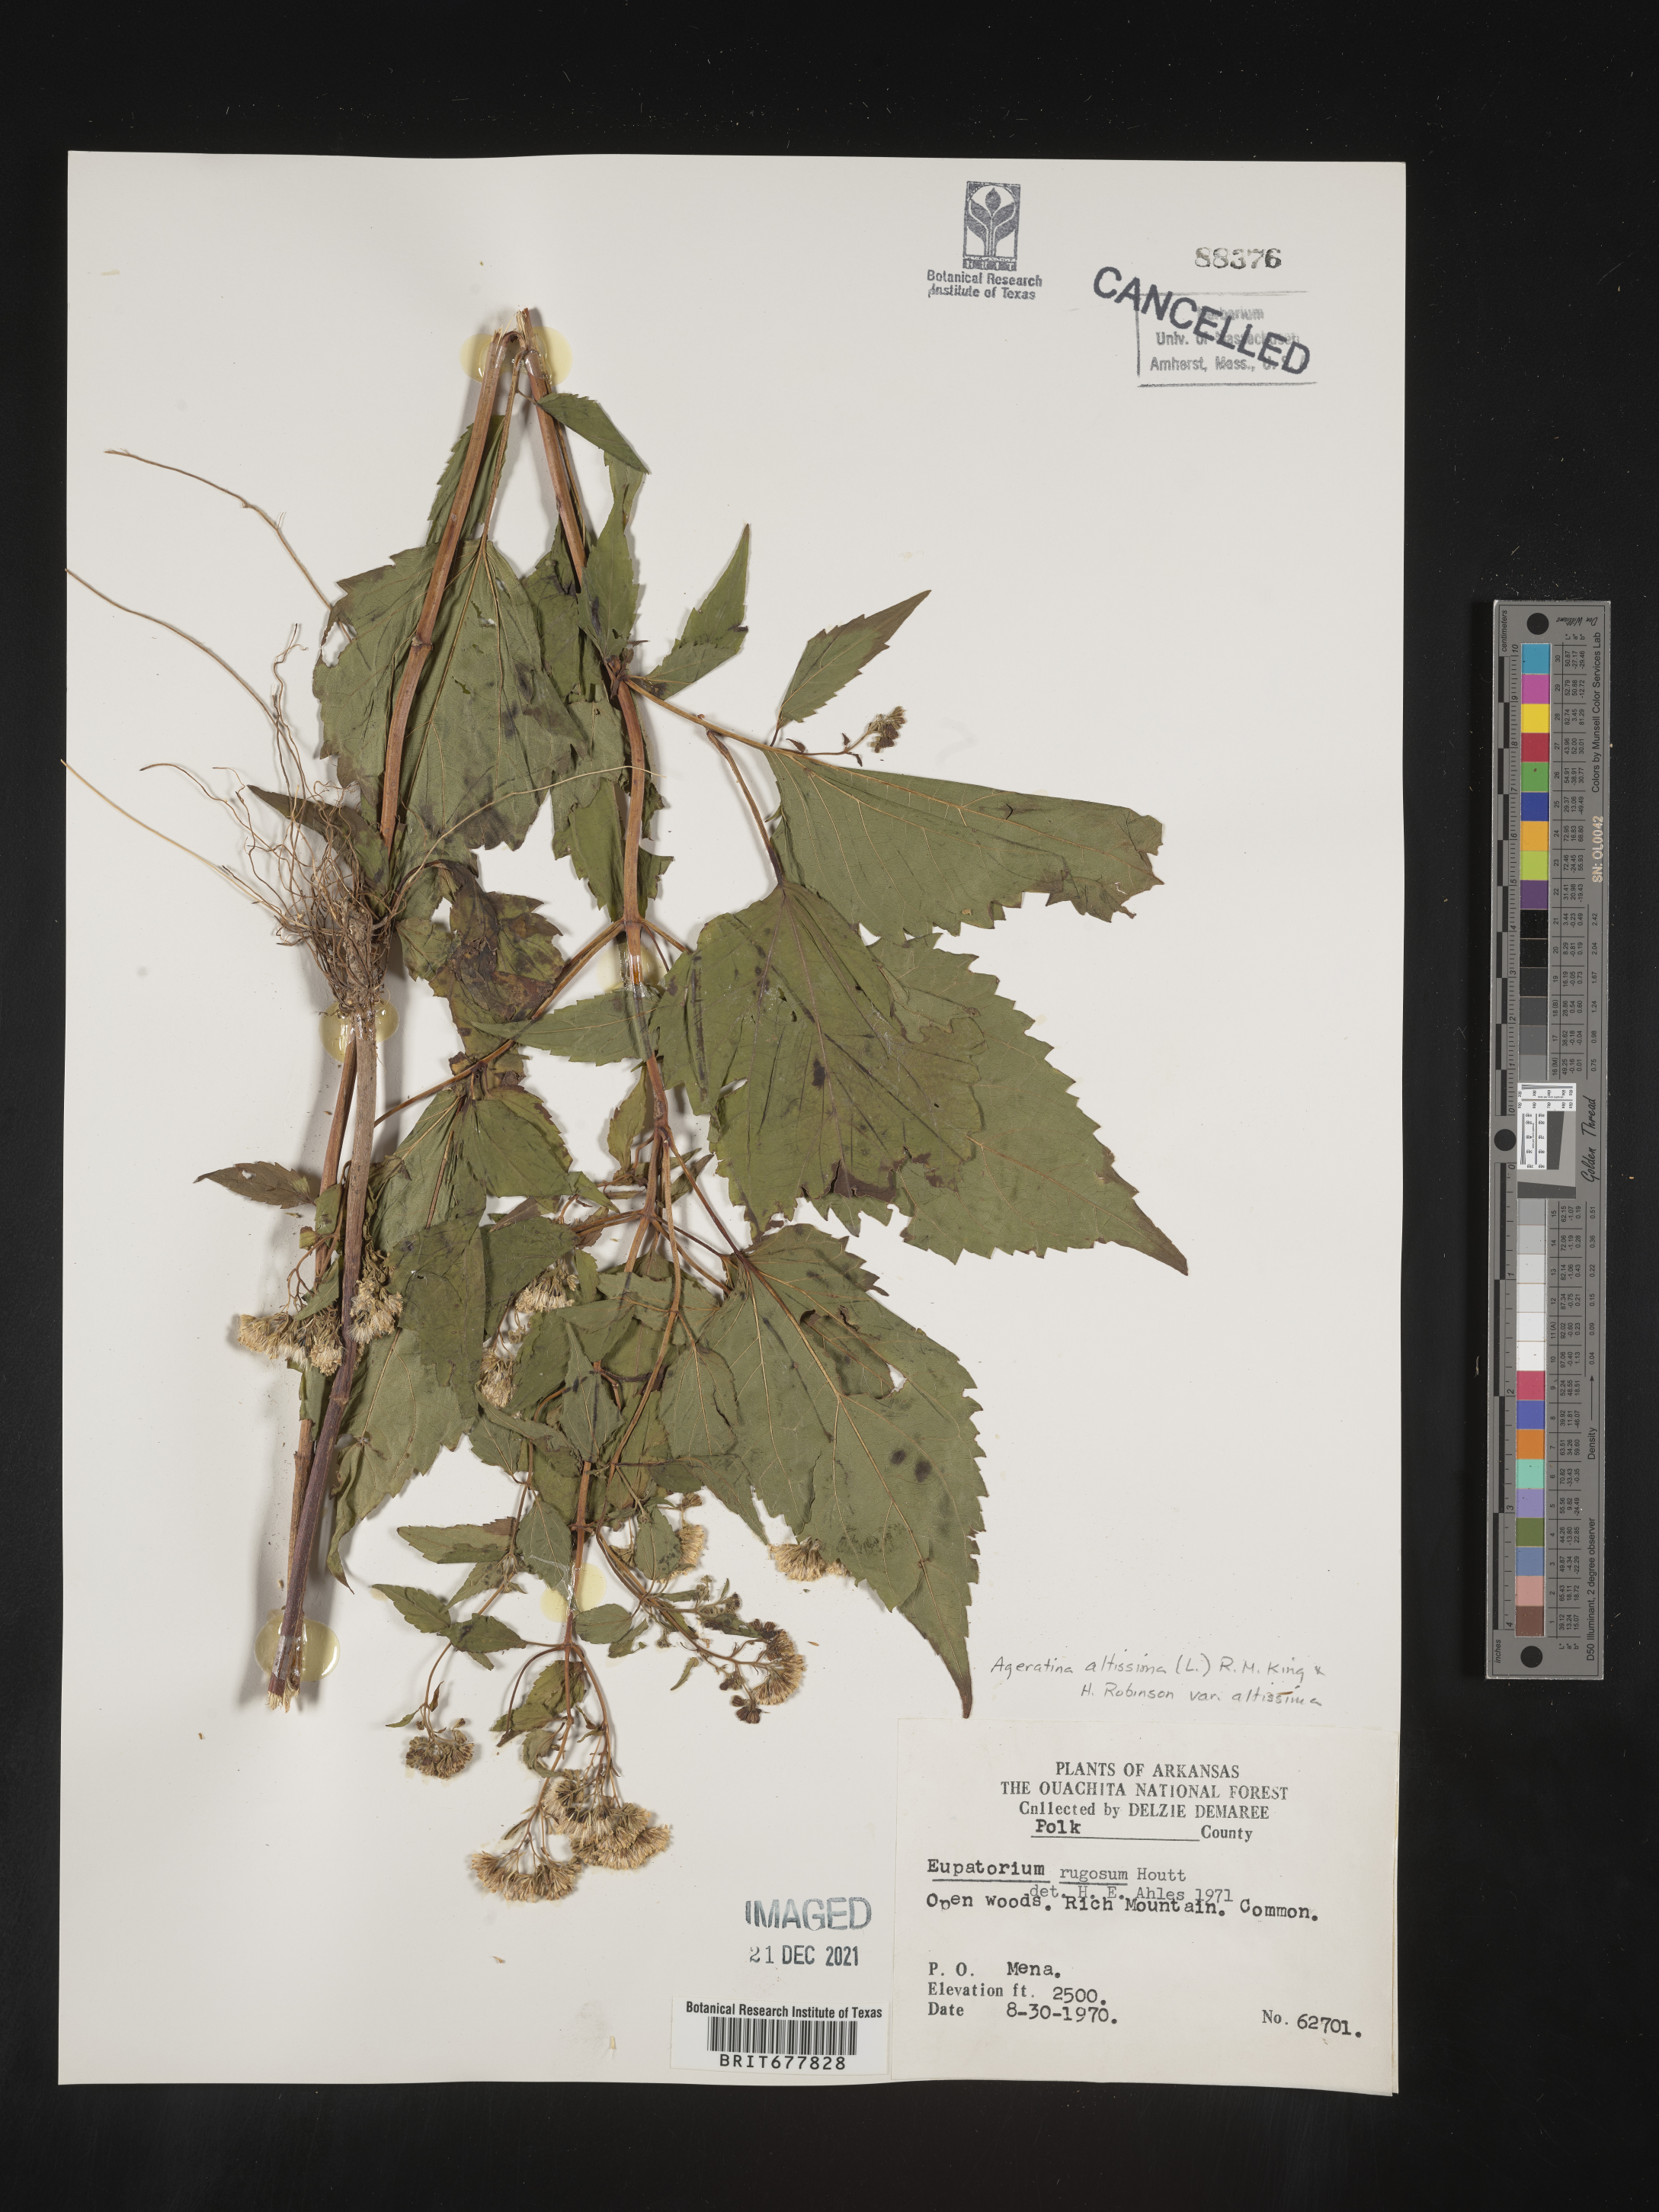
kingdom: Plantae
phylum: Tracheophyta
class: Magnoliopsida
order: Asterales
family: Asteraceae
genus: Ageratina
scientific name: Ageratina altissima
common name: White snakeroot
